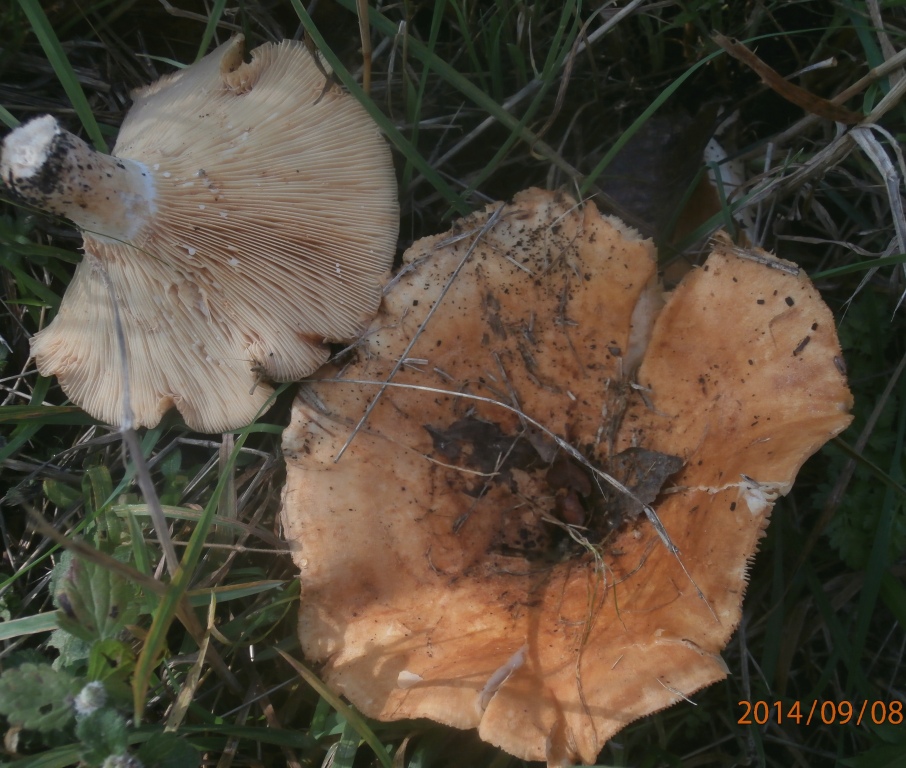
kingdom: Fungi
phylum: Basidiomycota
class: Agaricomycetes
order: Russulales
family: Russulaceae
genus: Lactarius
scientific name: Lactarius evosmus
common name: bæltet mælkehat
